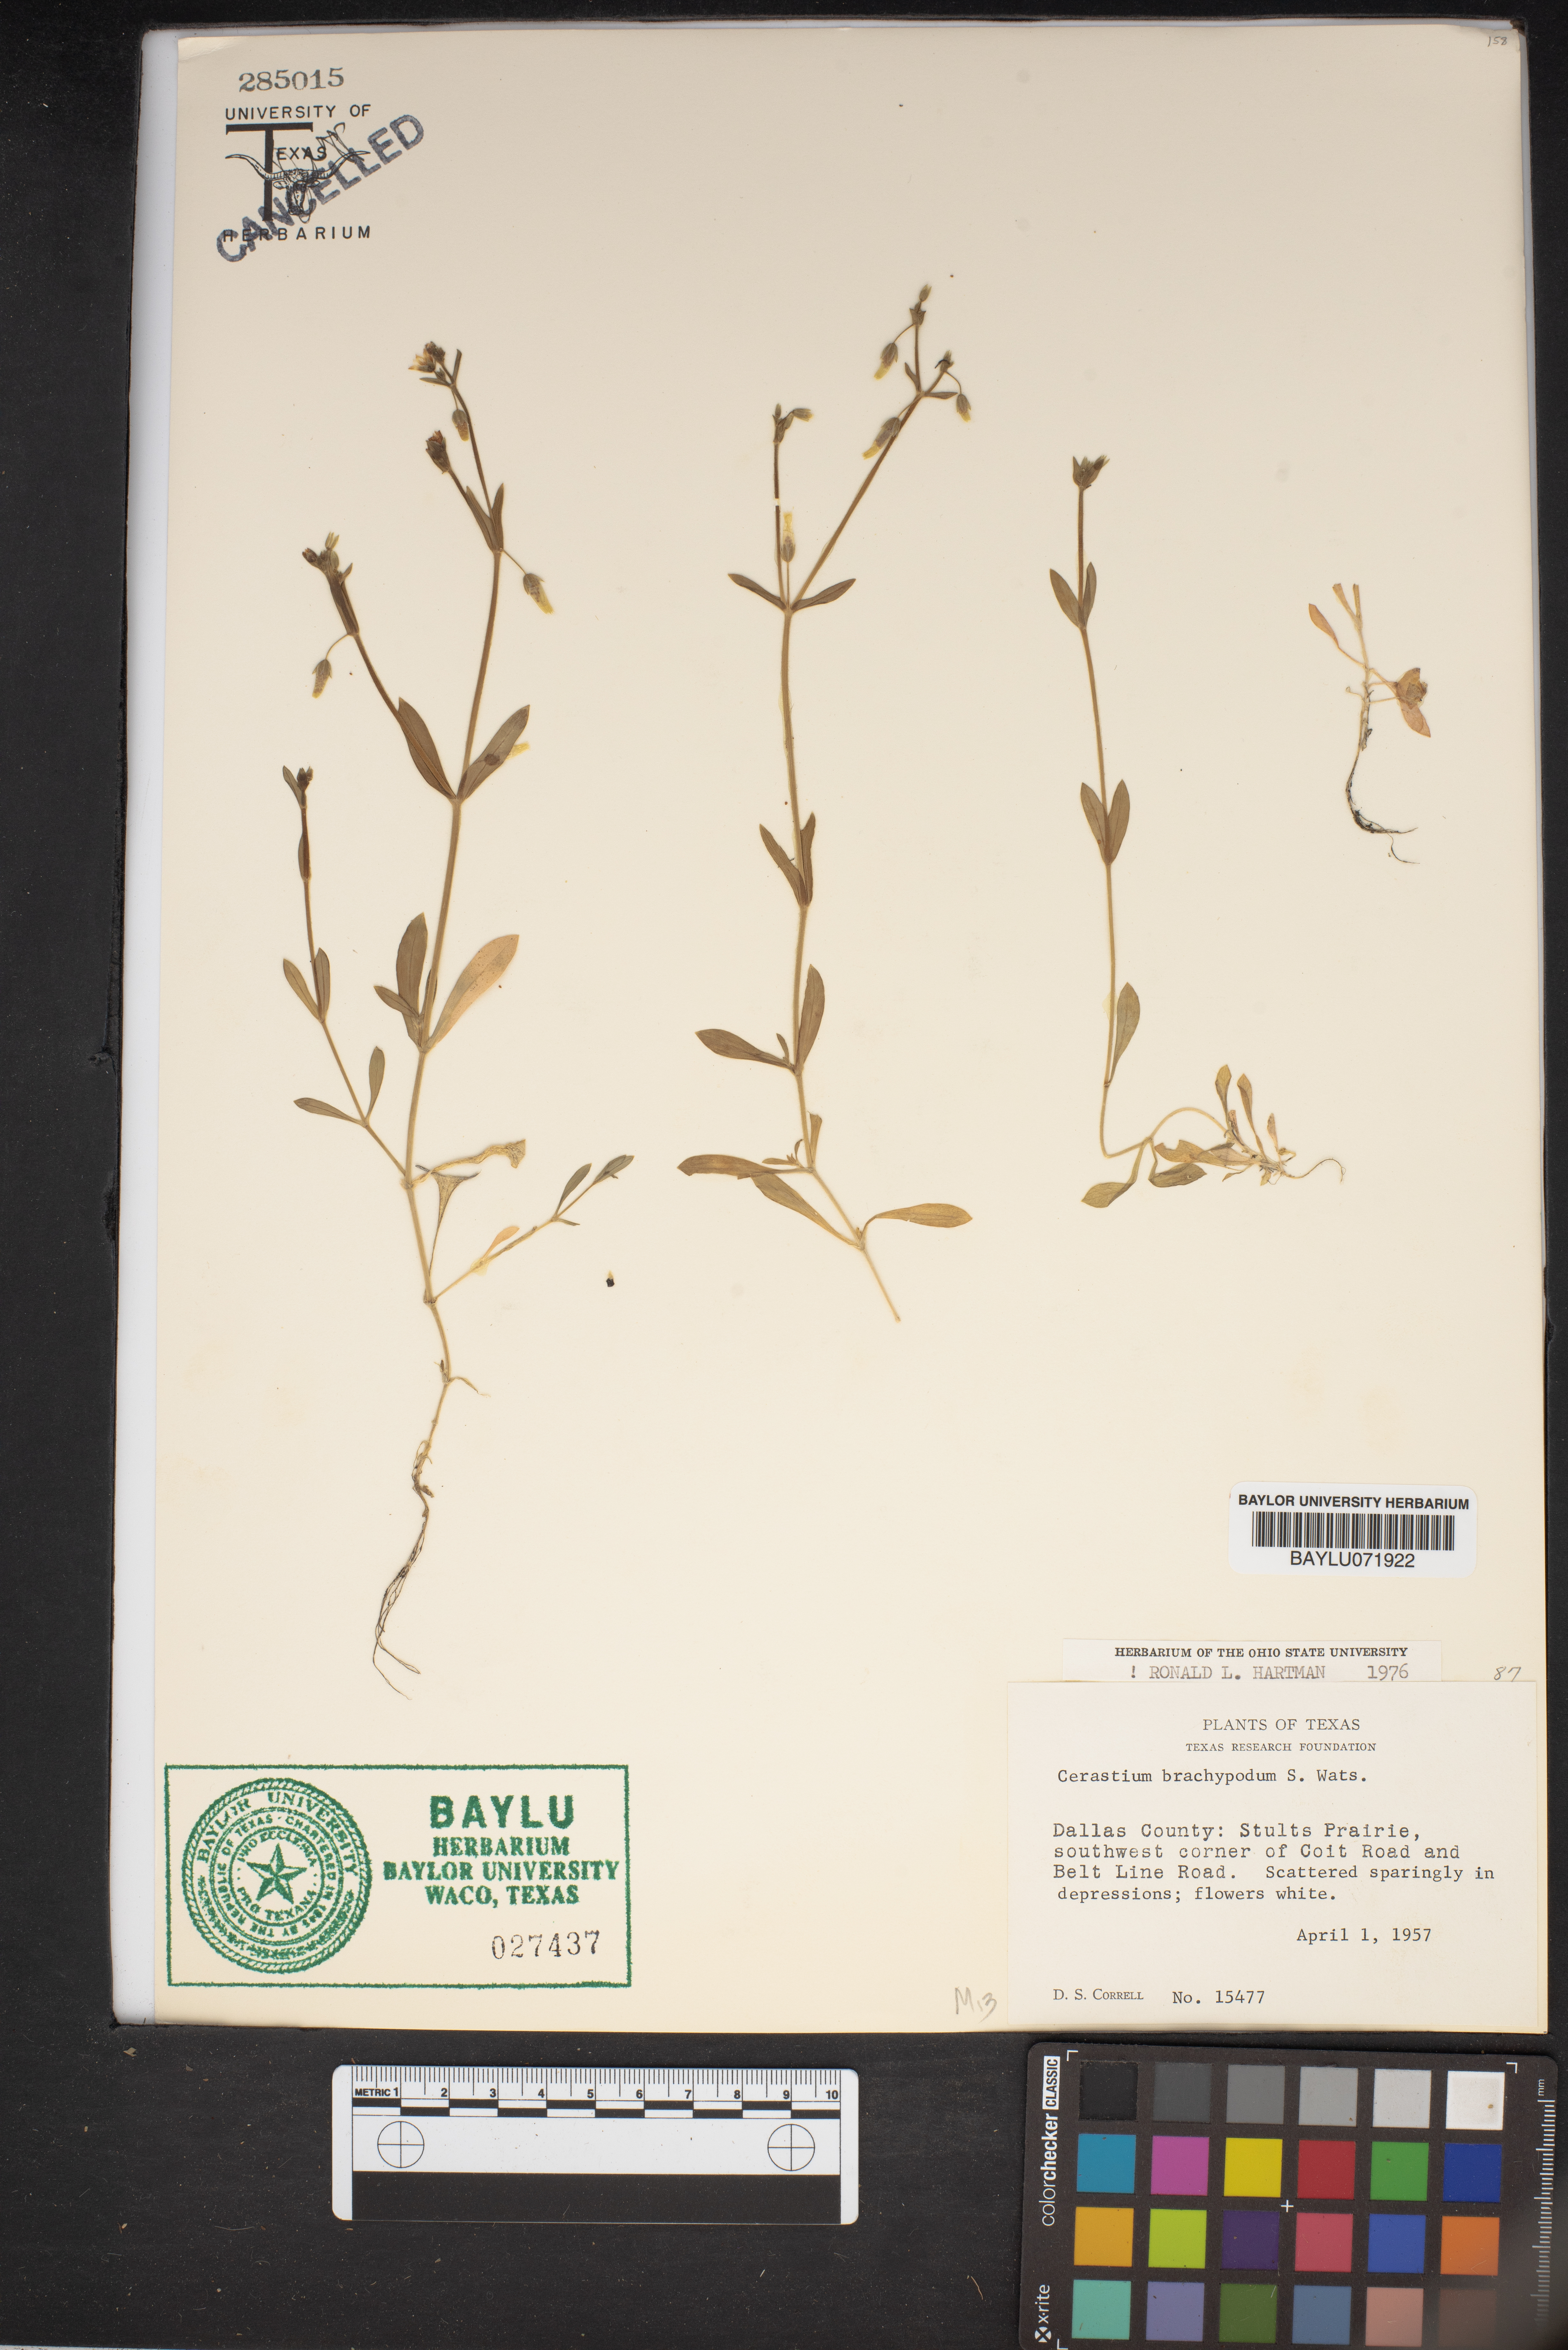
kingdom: Plantae
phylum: Tracheophyta
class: Magnoliopsida
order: Caryophyllales
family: Caryophyllaceae
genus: Cerastium
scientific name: Cerastium brachypodum
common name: Short-pedicelled nodding chickweed
